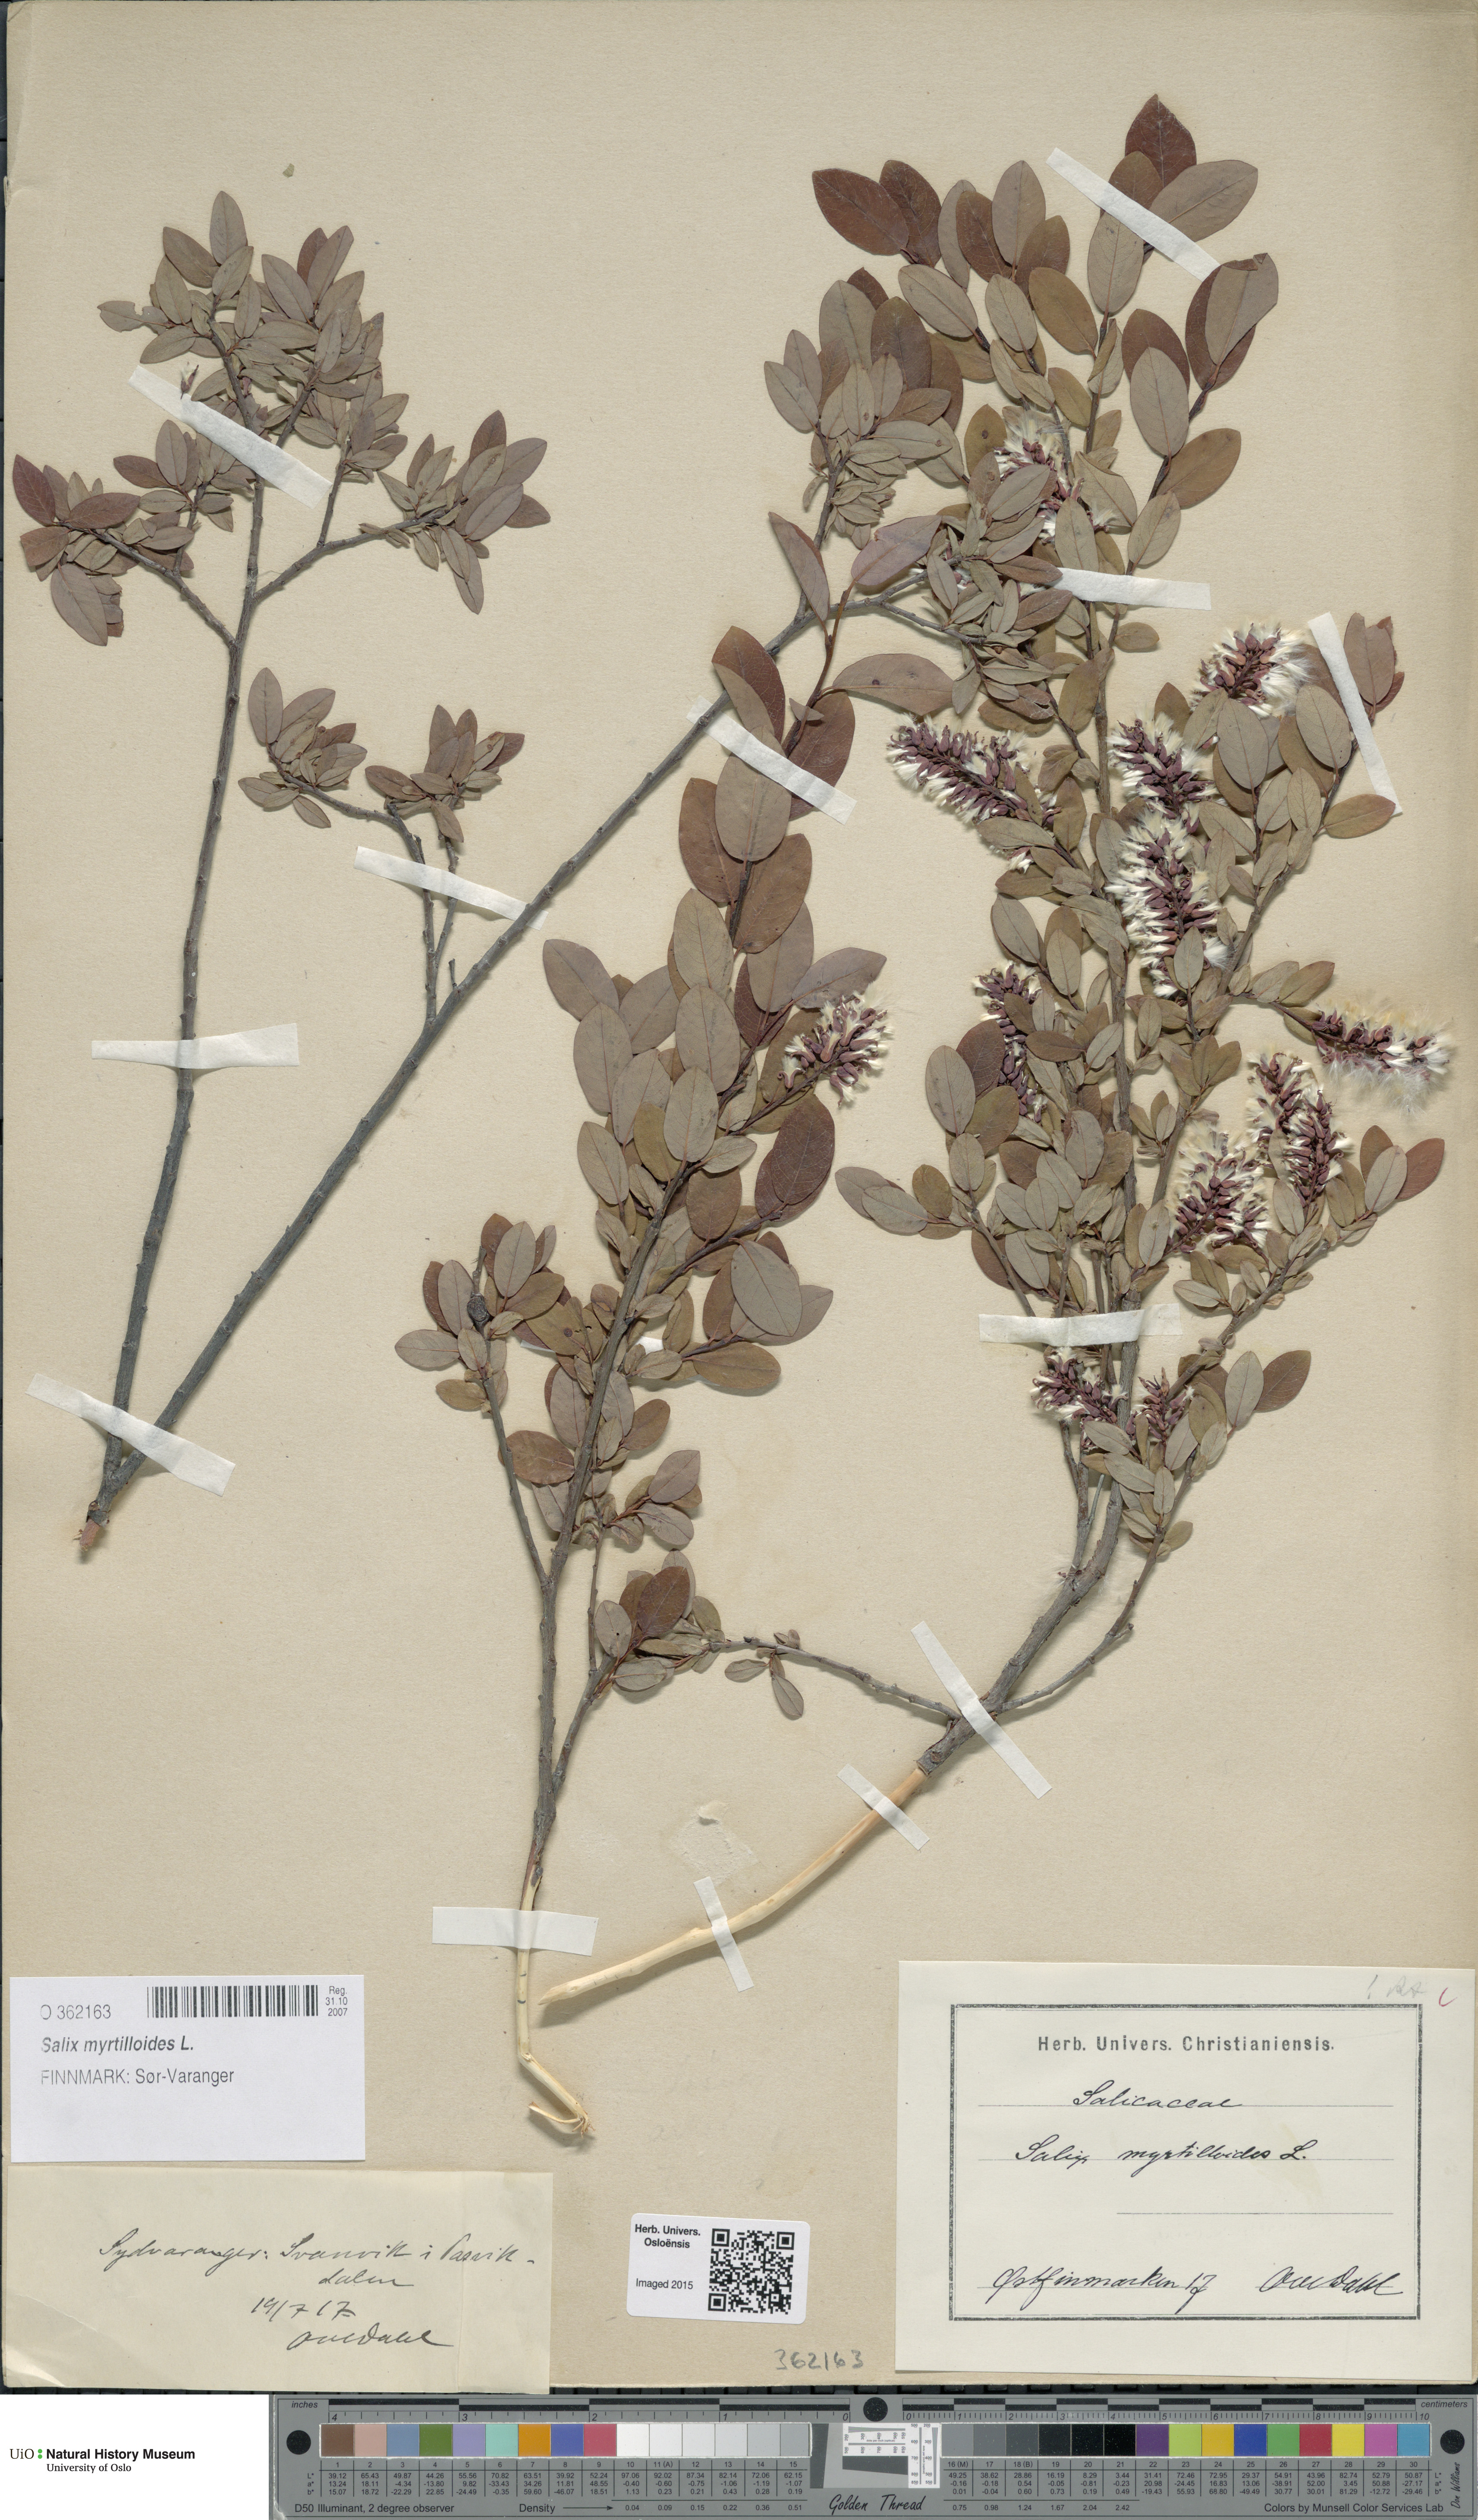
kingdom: Plantae
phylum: Tracheophyta
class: Magnoliopsida
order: Malpighiales
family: Salicaceae
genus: Salix
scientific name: Salix myrtilloides
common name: Myrtle-leaved willow
